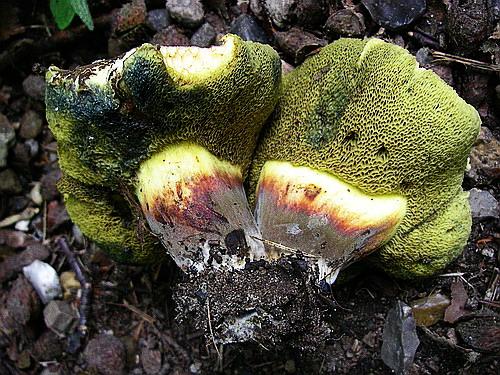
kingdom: Fungi
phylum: Basidiomycota
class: Agaricomycetes
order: Boletales
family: Boletaceae
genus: Xerocomellus
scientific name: Xerocomellus cisalpinus
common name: finsprukken rørhat
